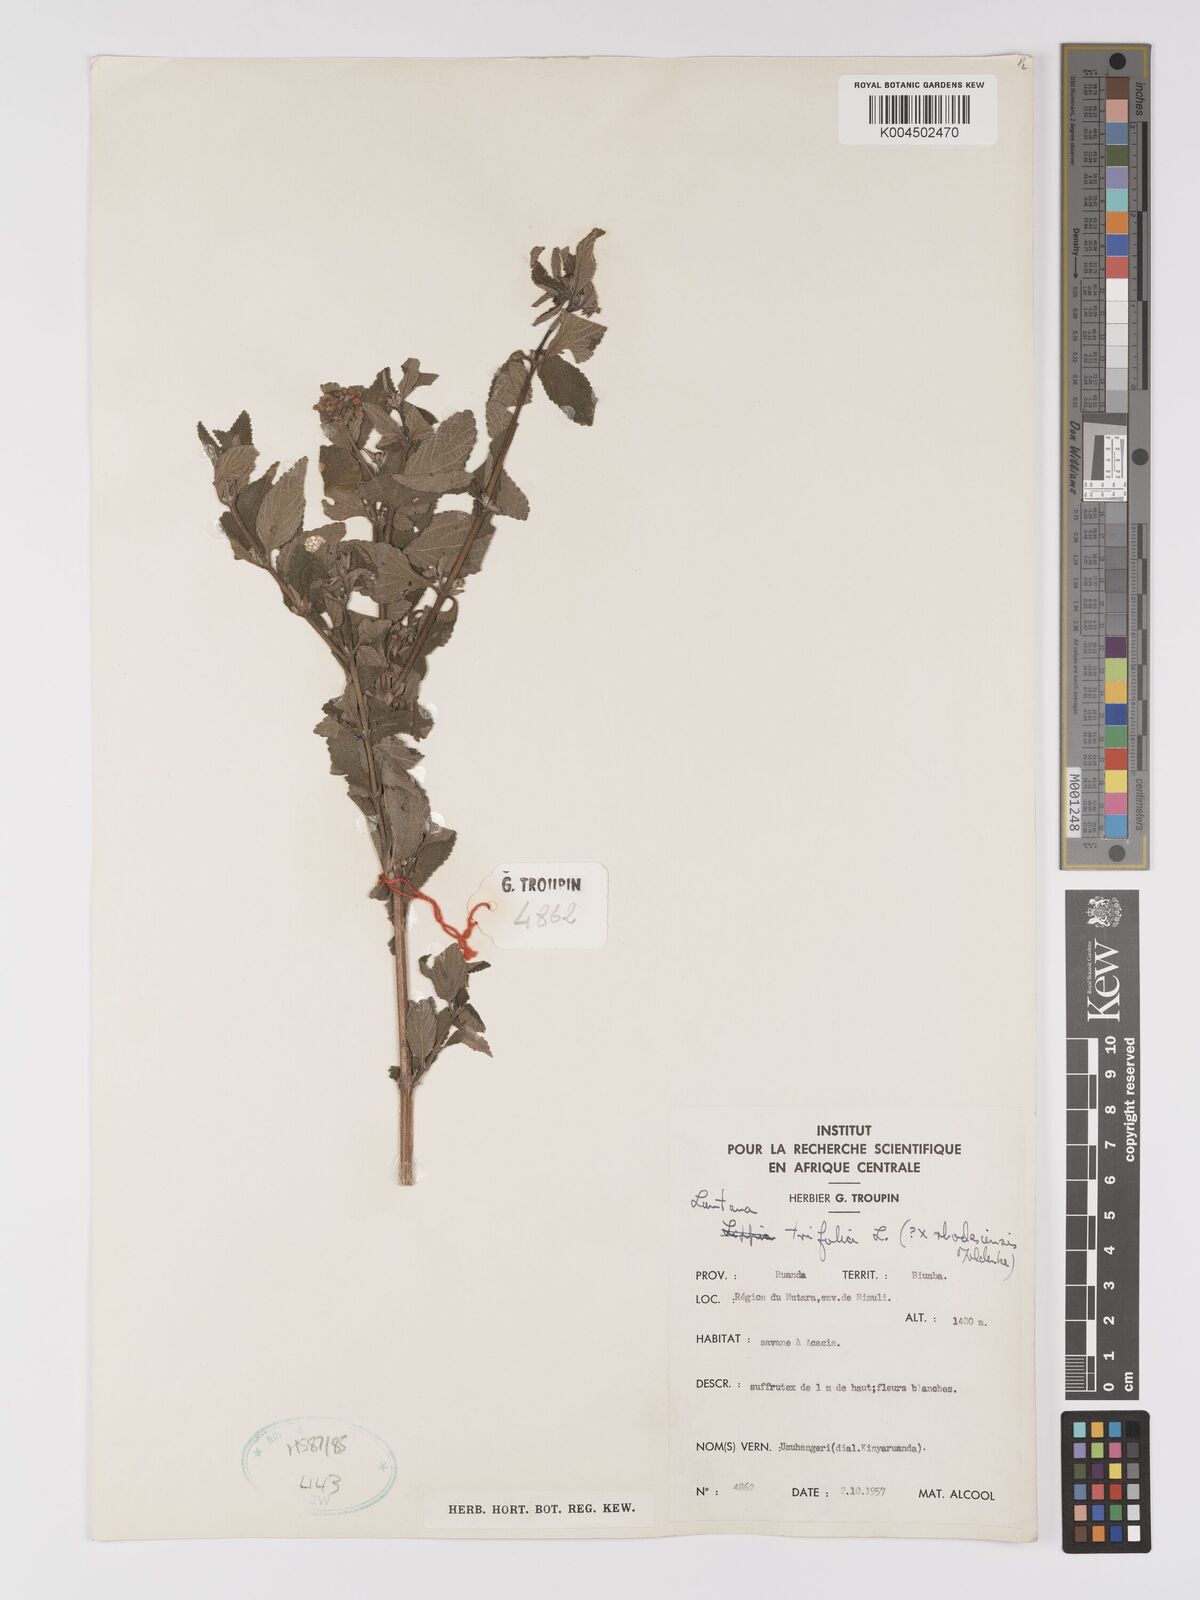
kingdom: Plantae
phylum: Tracheophyta
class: Magnoliopsida
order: Lamiales
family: Verbenaceae
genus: Lantana
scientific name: Lantana ukambensis
